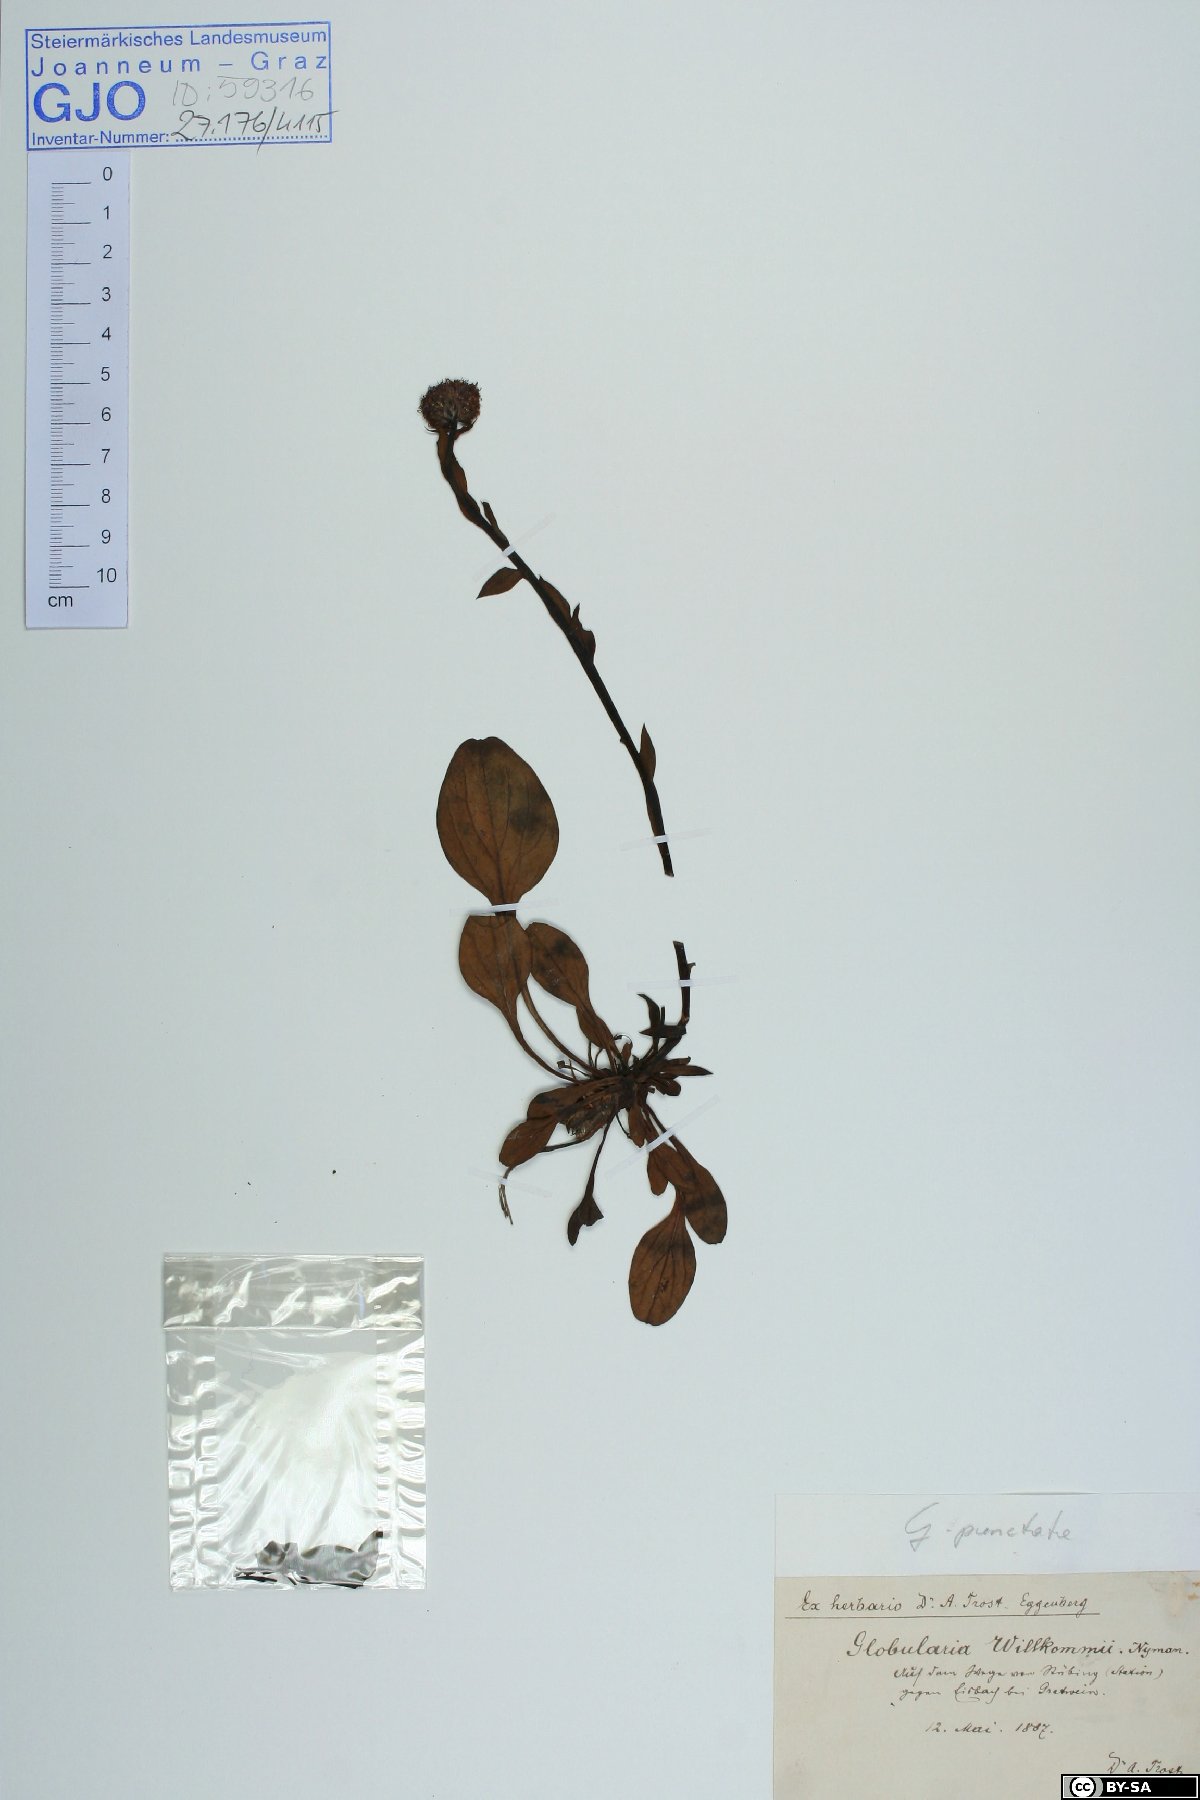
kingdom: Plantae
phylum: Tracheophyta
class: Magnoliopsida
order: Lamiales
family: Plantaginaceae
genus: Globularia
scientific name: Globularia bisnagarica
